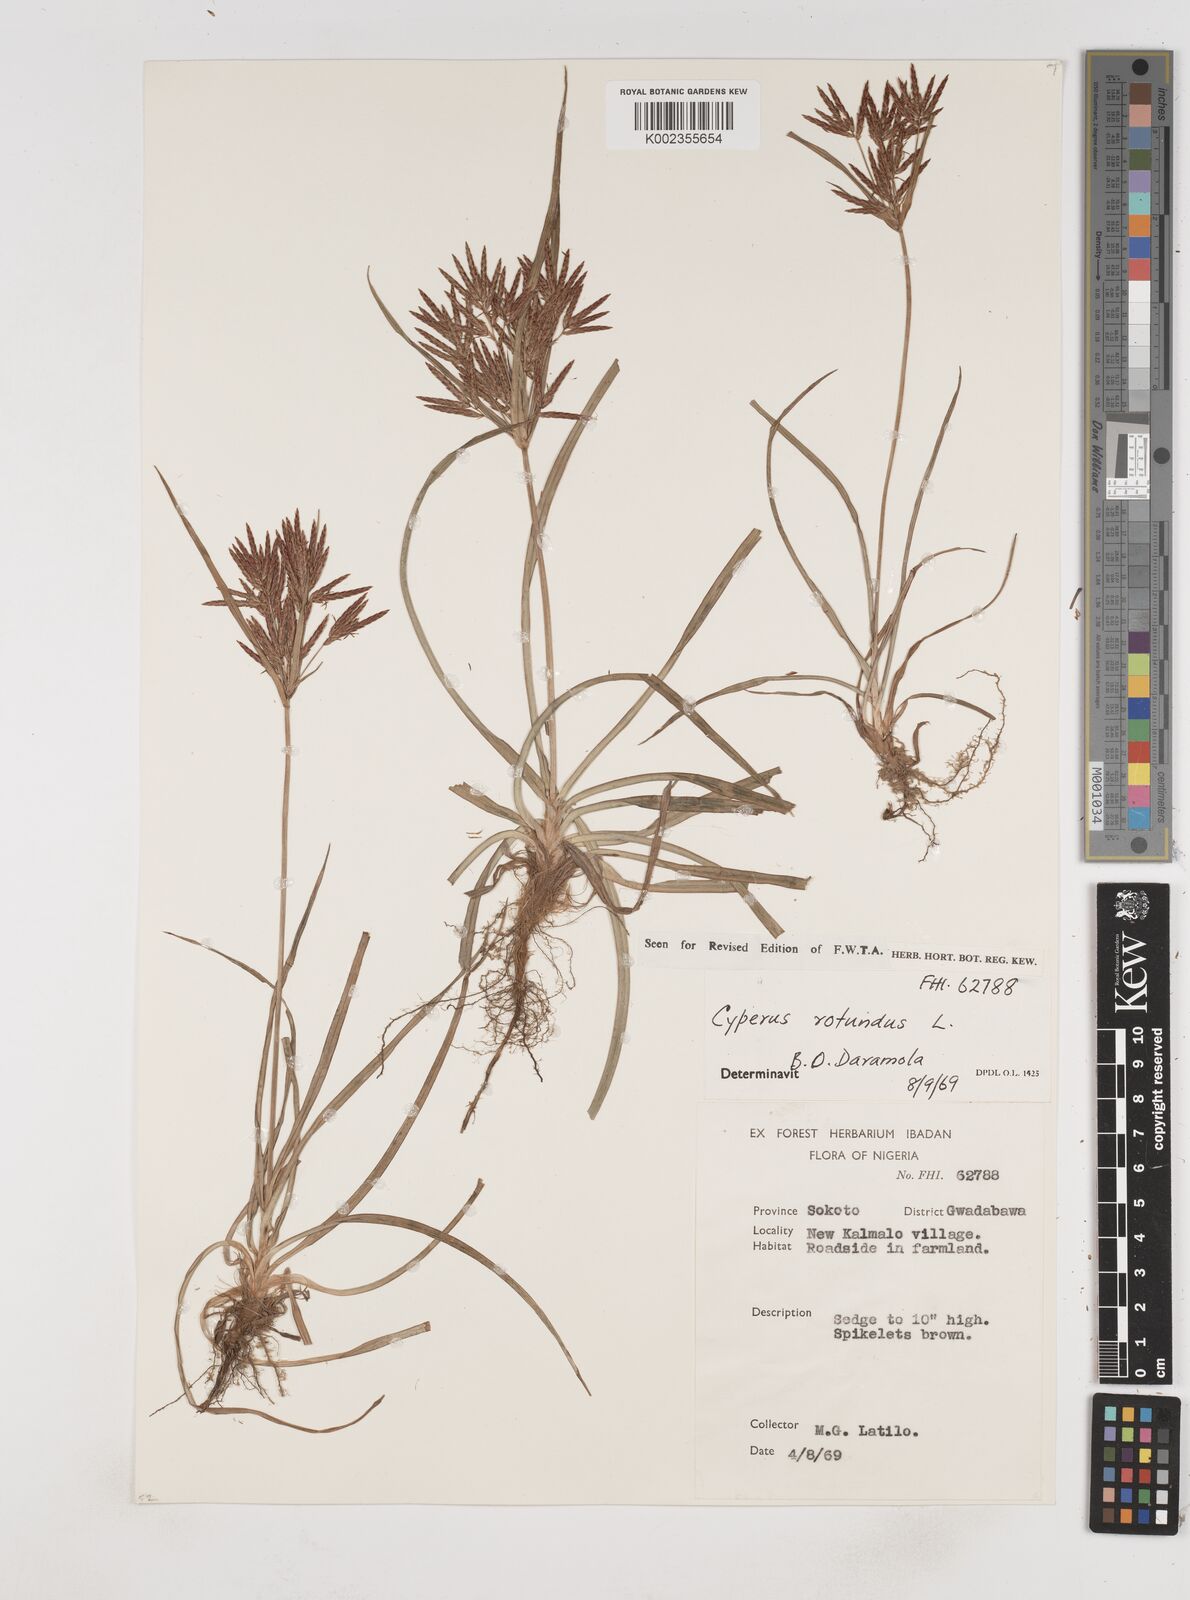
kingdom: Plantae
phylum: Tracheophyta
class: Liliopsida
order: Poales
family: Cyperaceae
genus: Cyperus
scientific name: Cyperus rotundus
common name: Nutgrass
